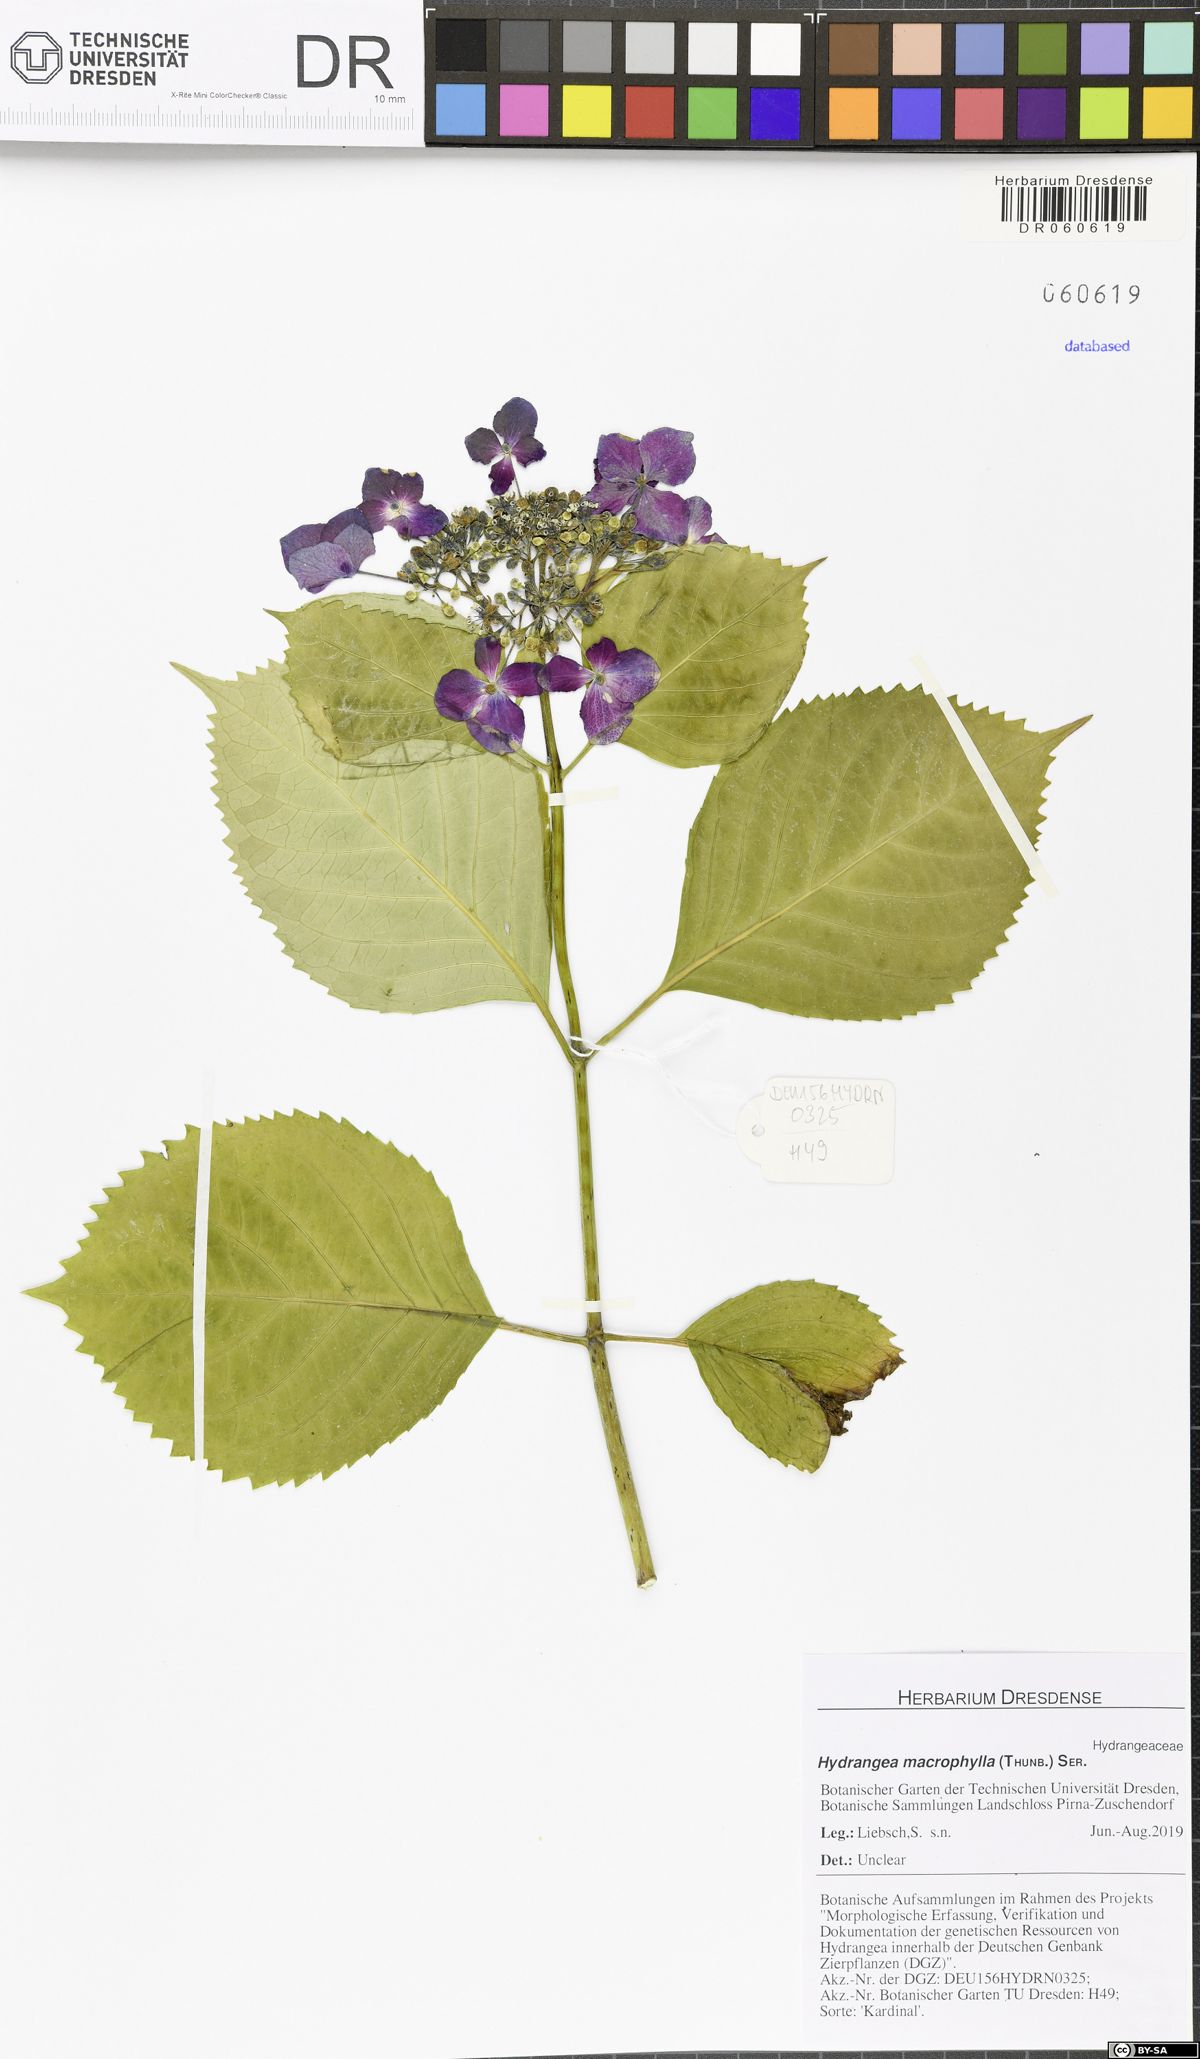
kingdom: Plantae
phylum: Tracheophyta
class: Magnoliopsida
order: Cornales
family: Hydrangeaceae
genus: Hydrangea
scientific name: Hydrangea macrophylla
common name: Hydrangea
